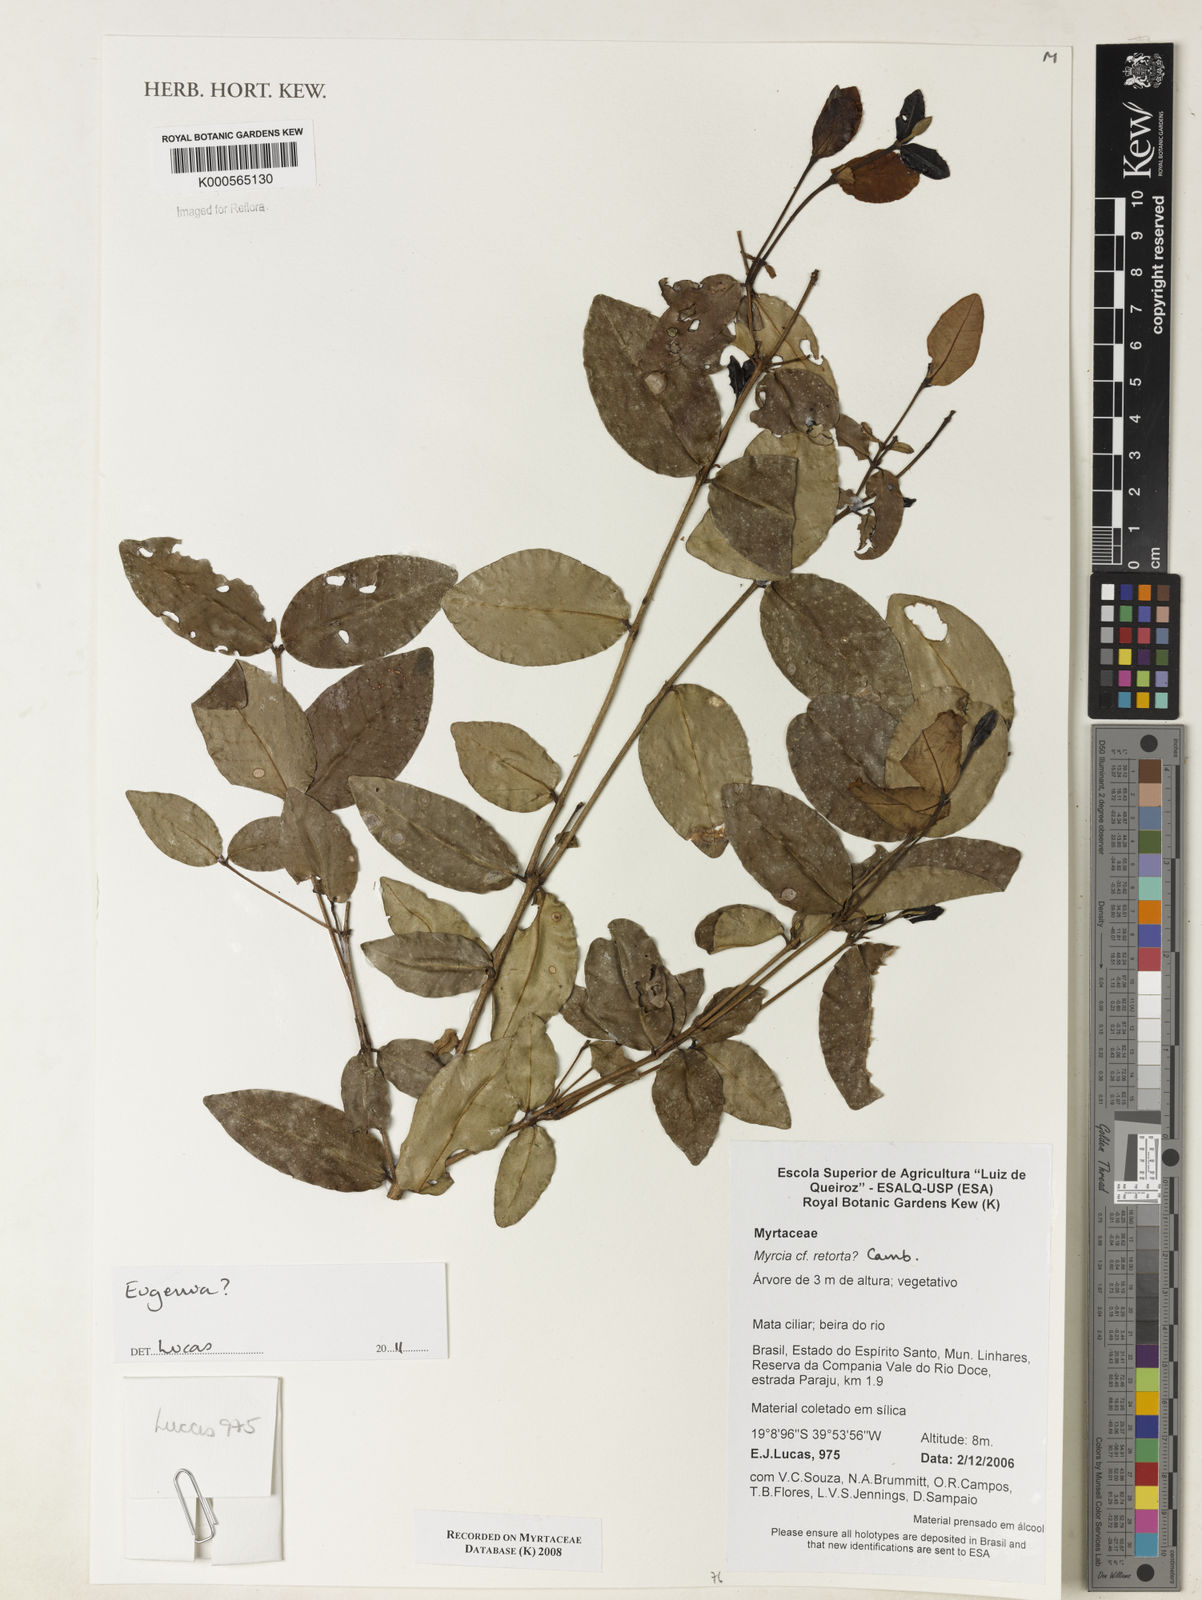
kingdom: Plantae
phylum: Tracheophyta
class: Magnoliopsida
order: Myrtales
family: Myrtaceae
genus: Psidium
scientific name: Psidium brownianum
